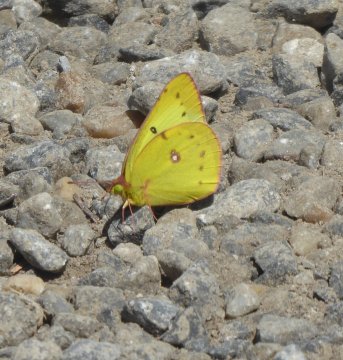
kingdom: Animalia
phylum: Arthropoda
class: Insecta
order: Lepidoptera
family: Pieridae
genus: Colias
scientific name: Colias philodice
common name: Clouded Sulphur
